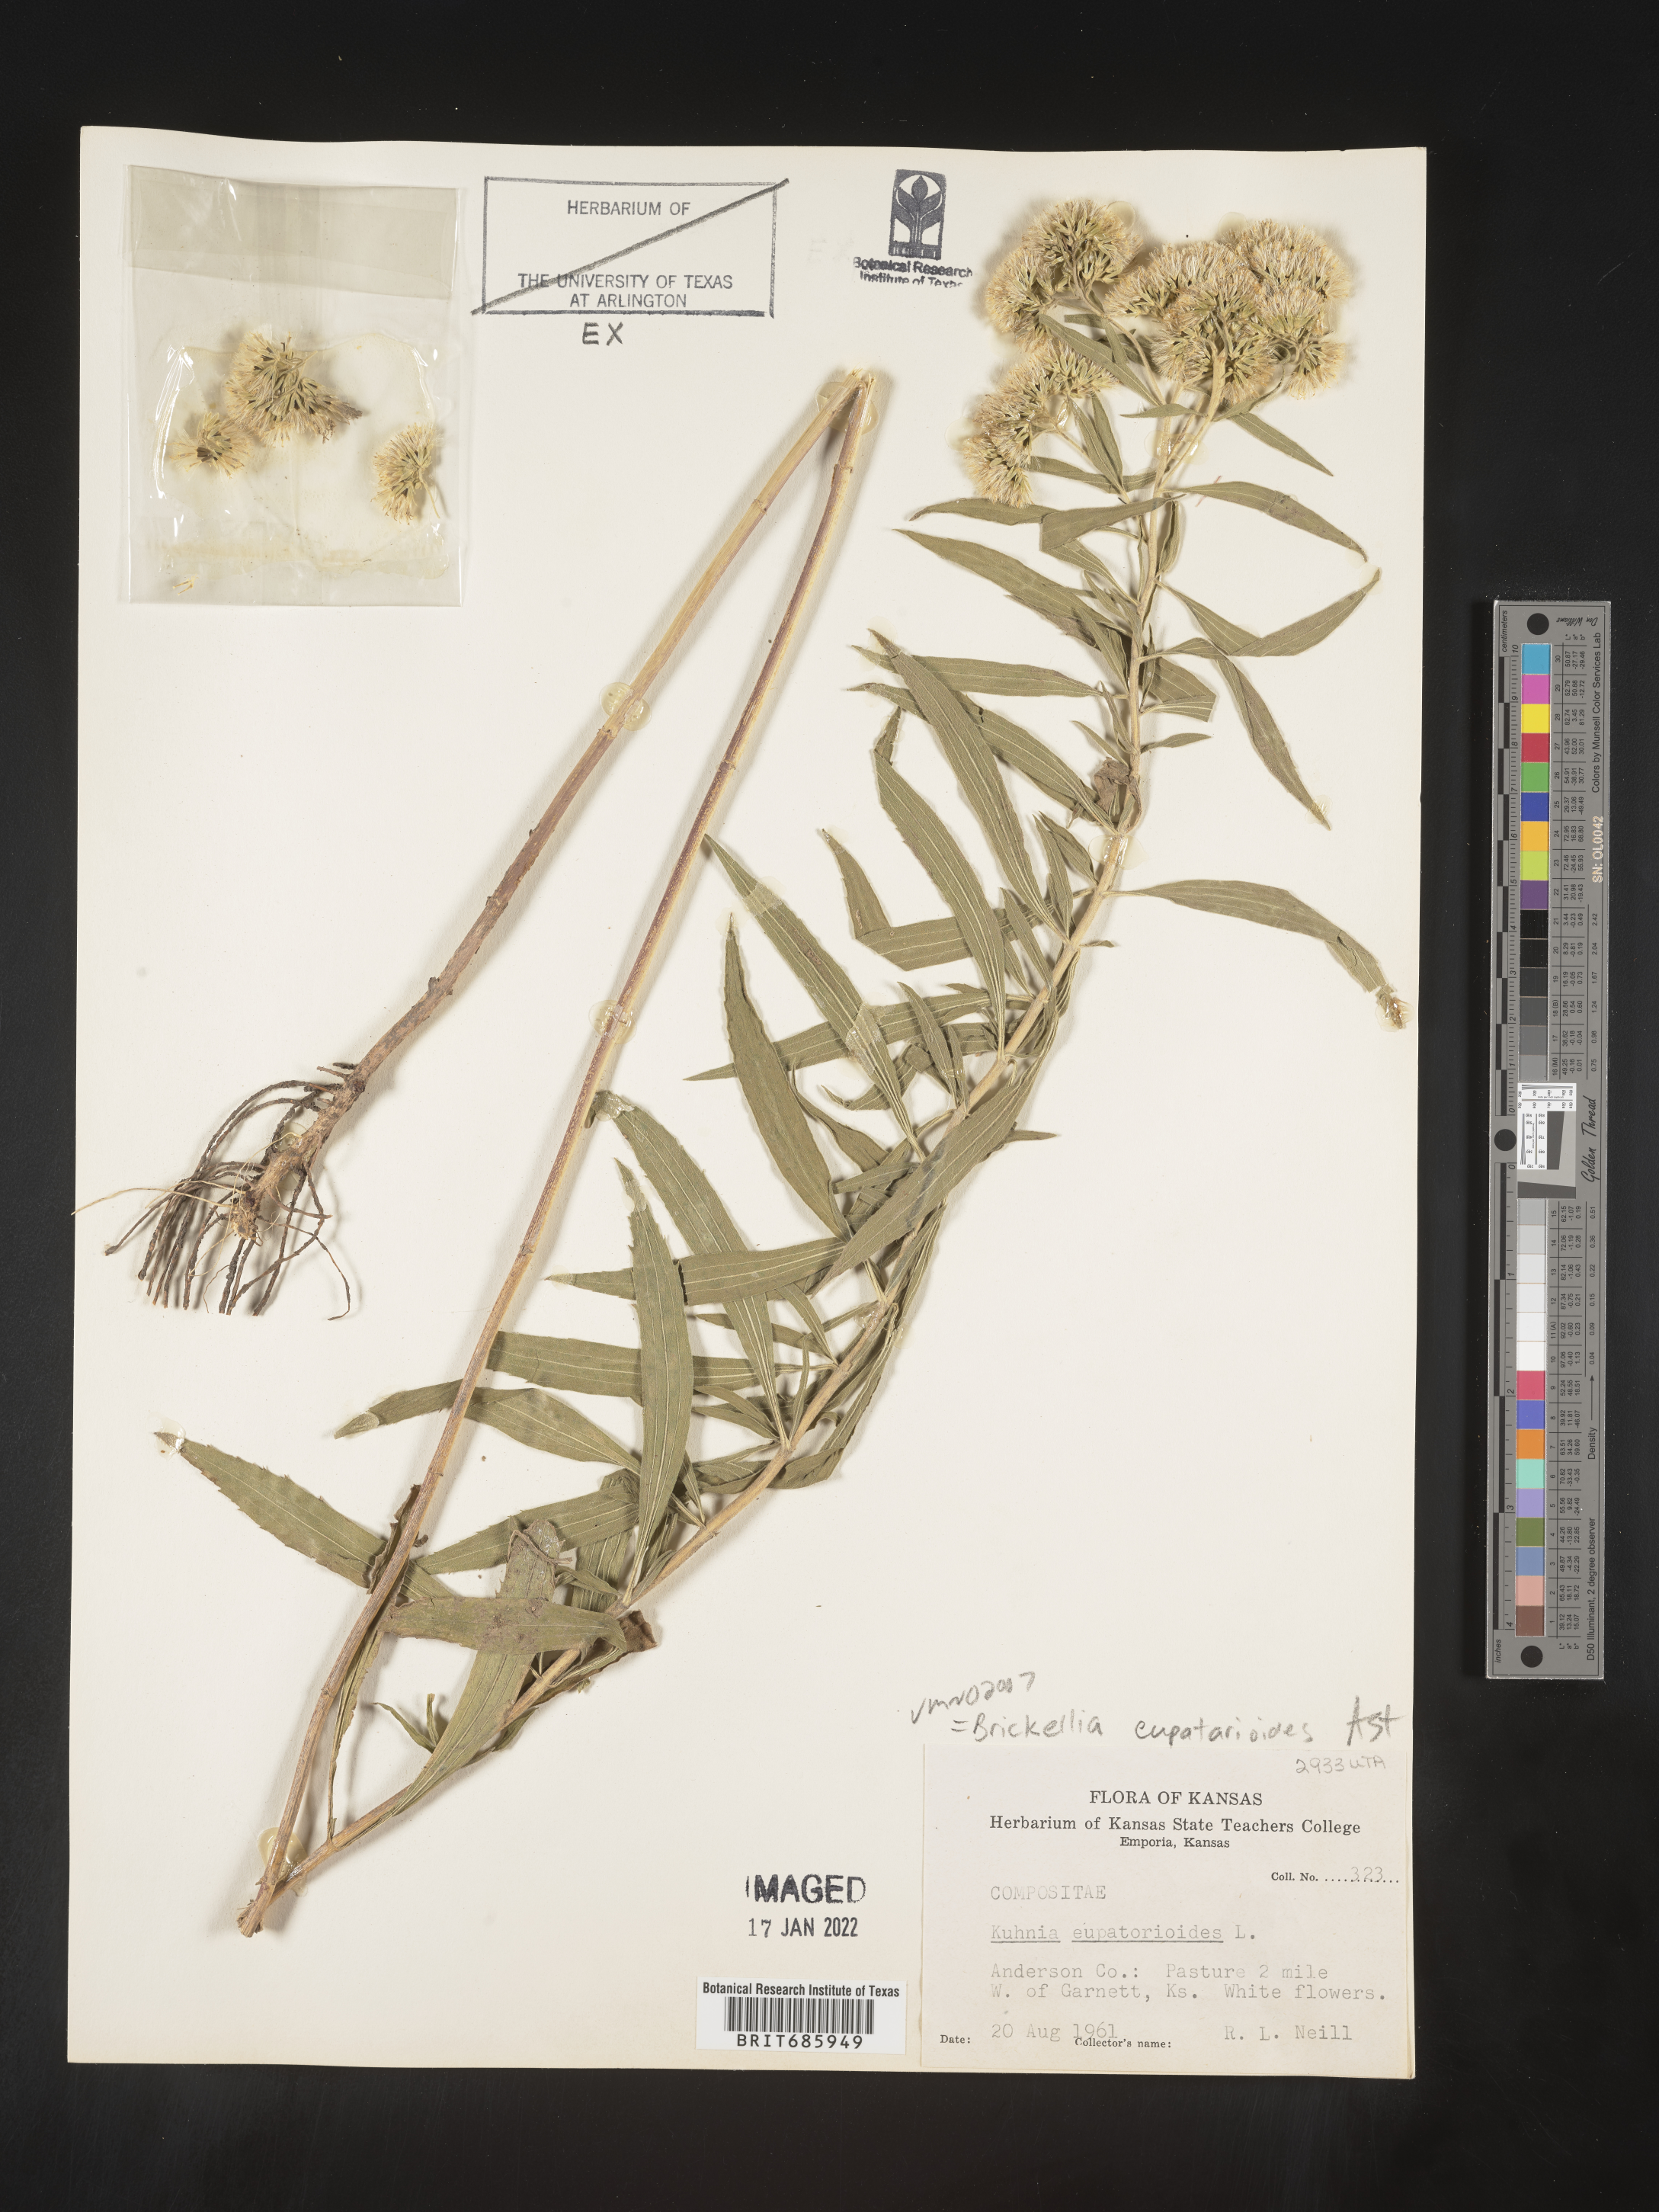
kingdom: Plantae
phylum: Tracheophyta
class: Magnoliopsida
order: Asterales
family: Asteraceae
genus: Brickellia
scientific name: Brickellia eupatorioides
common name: False boneset
